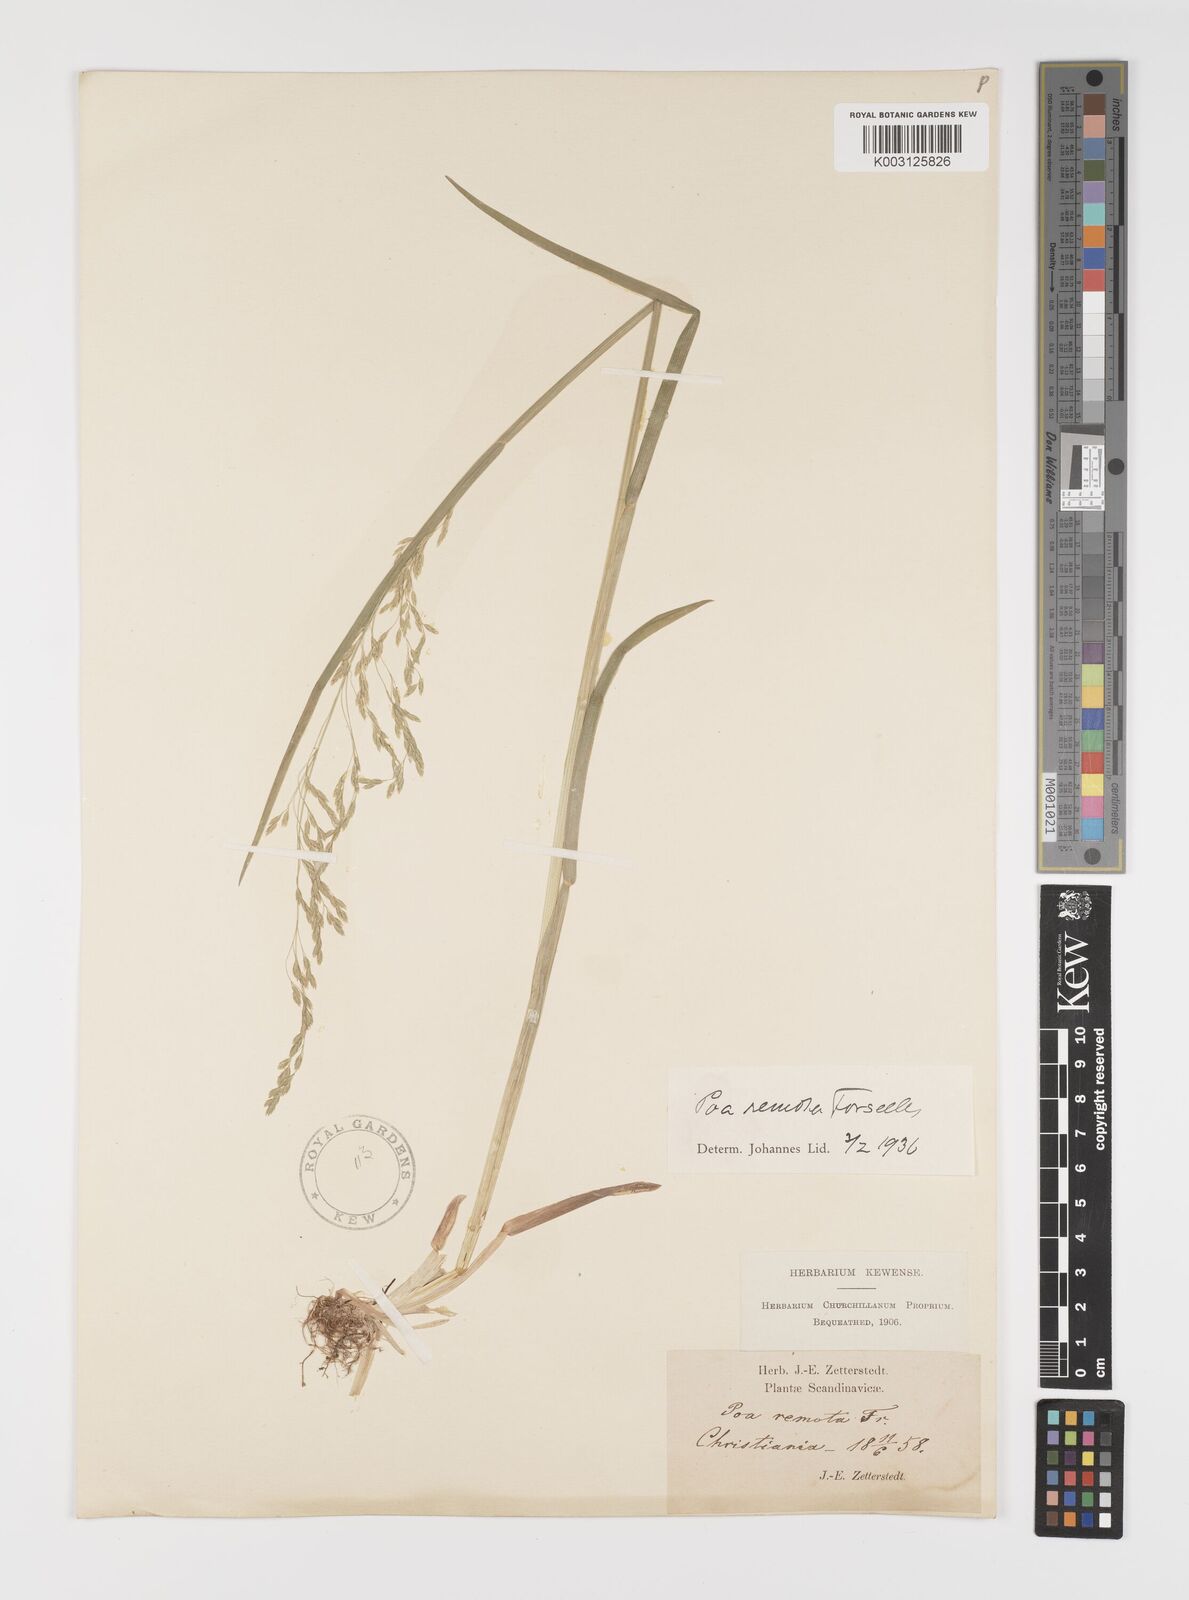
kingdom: Plantae
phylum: Tracheophyta
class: Liliopsida
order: Poales
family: Poaceae
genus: Poa
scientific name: Poa remota
